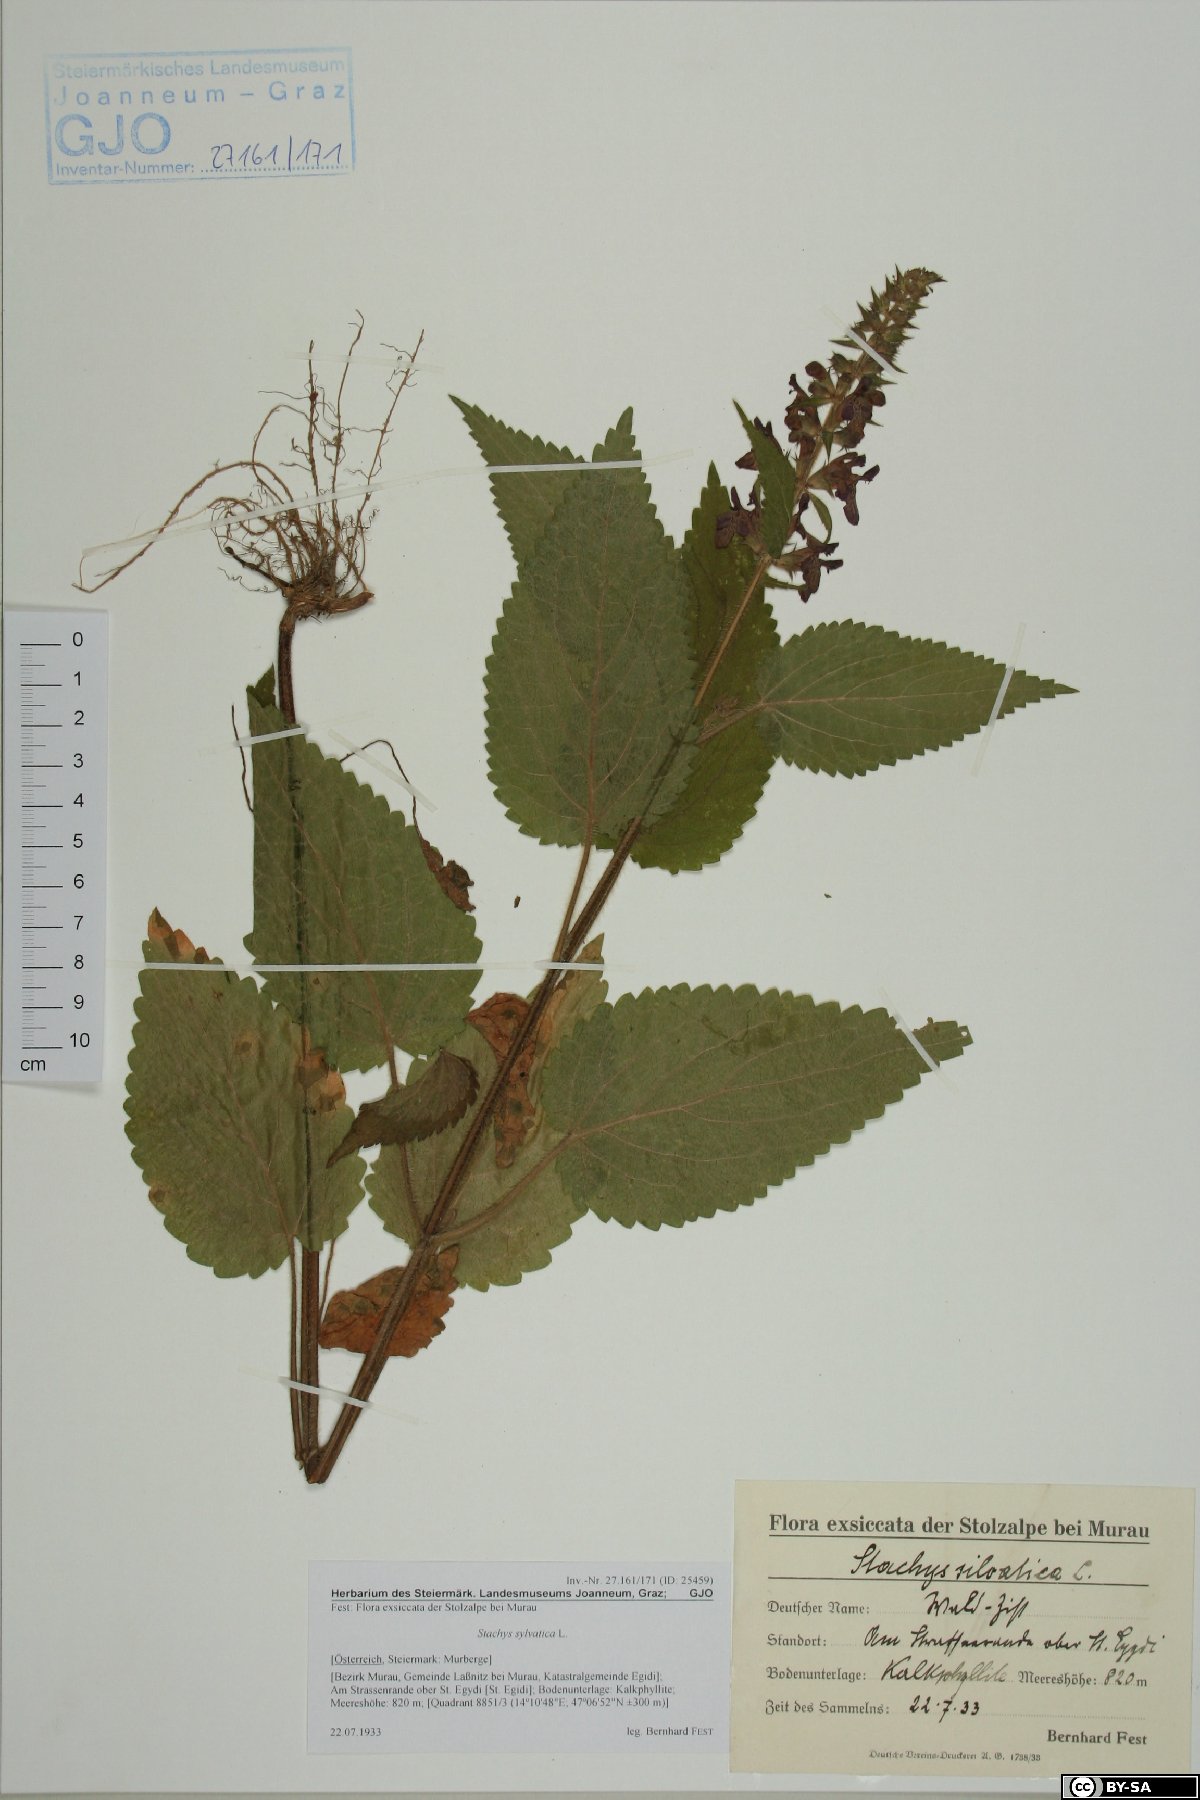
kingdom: Plantae
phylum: Tracheophyta
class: Magnoliopsida
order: Lamiales
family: Lamiaceae
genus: Stachys
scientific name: Stachys sylvatica
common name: Hedge woundwort
